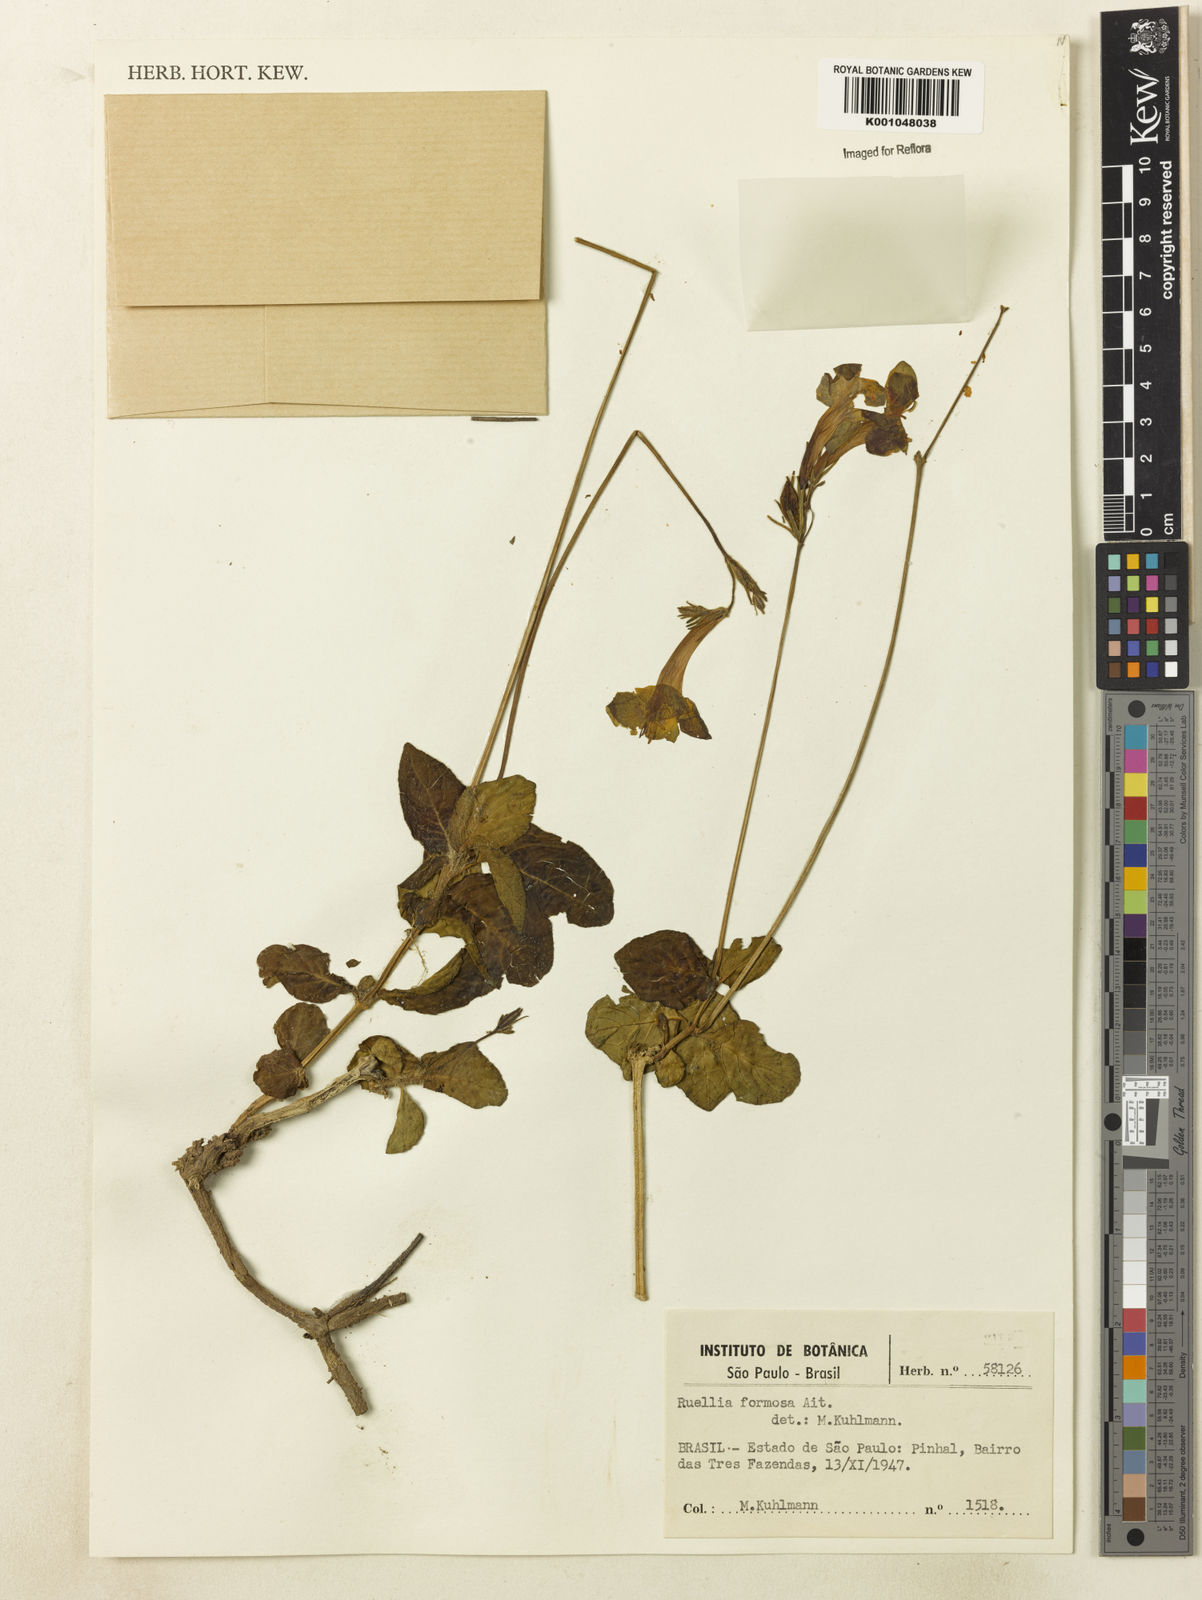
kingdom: Plantae
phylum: Tracheophyta
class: Magnoliopsida
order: Lamiales
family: Acanthaceae
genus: Ruellia
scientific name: Ruellia elegans
